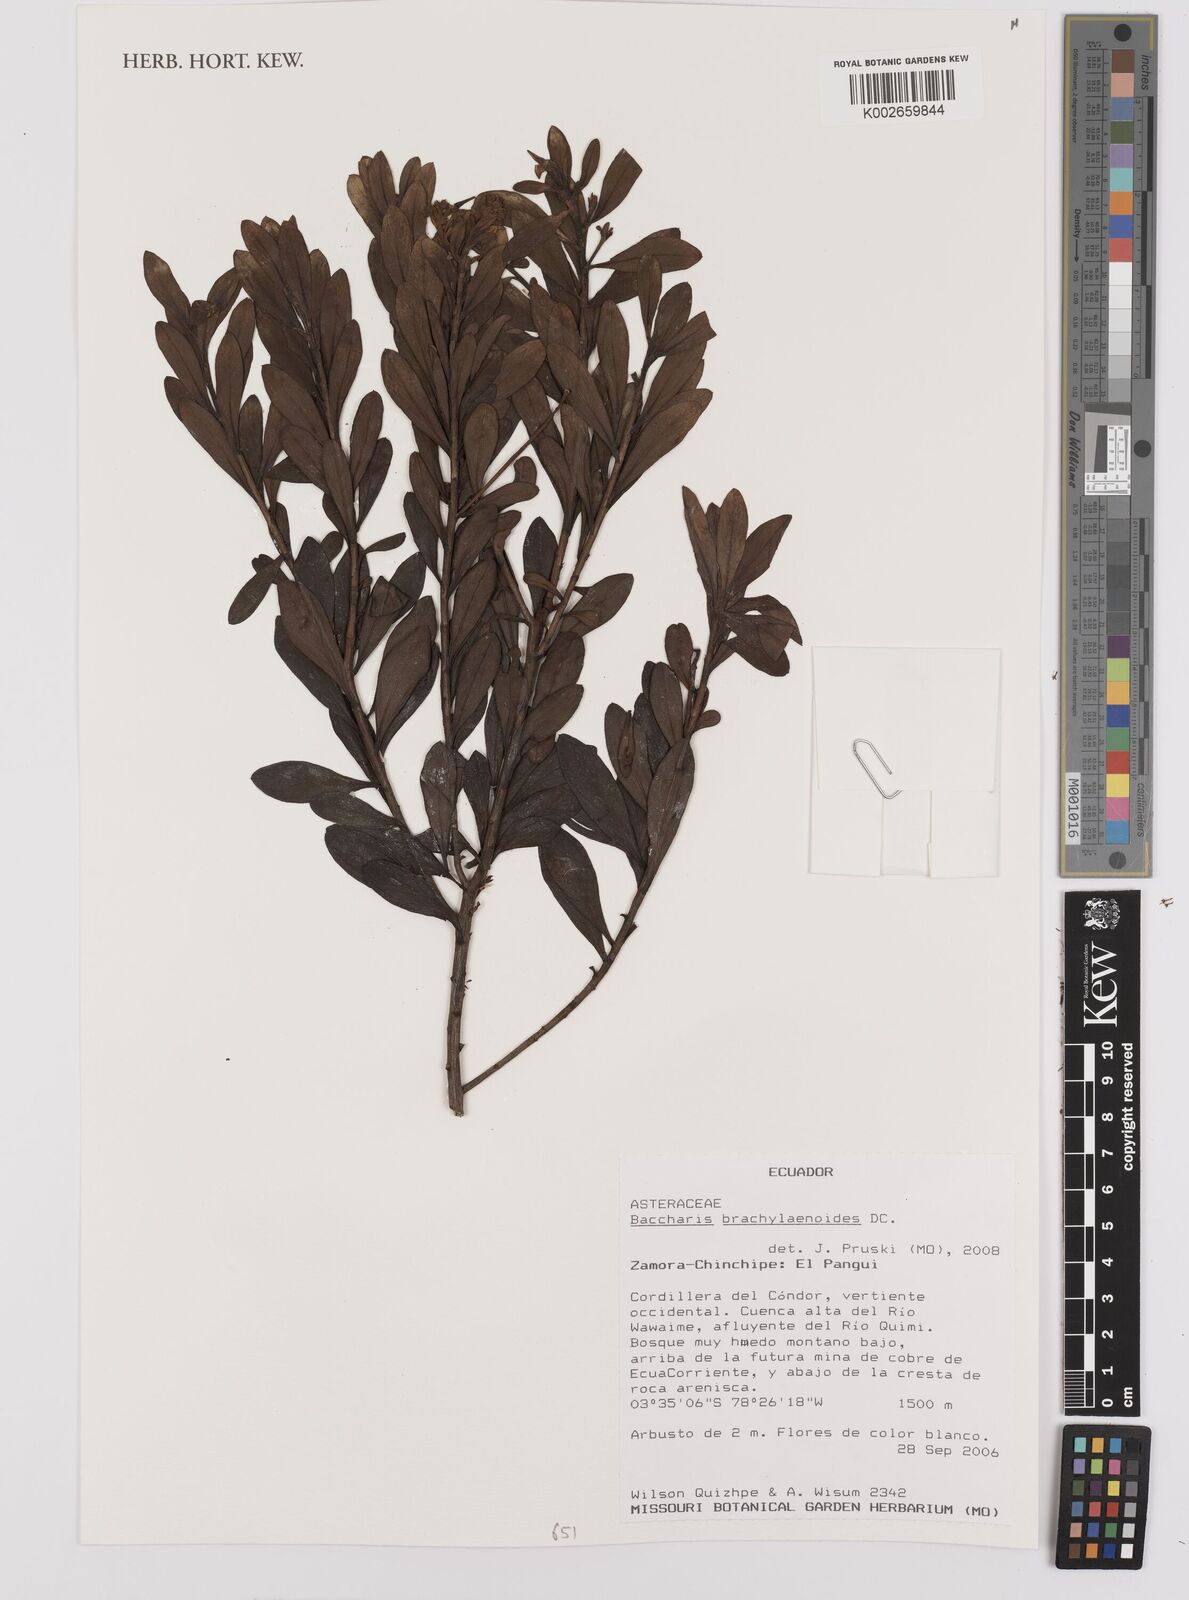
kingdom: Plantae
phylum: Tracheophyta
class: Magnoliopsida
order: Asterales
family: Asteraceae
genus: Baccharis
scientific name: Baccharis oblongifolia
